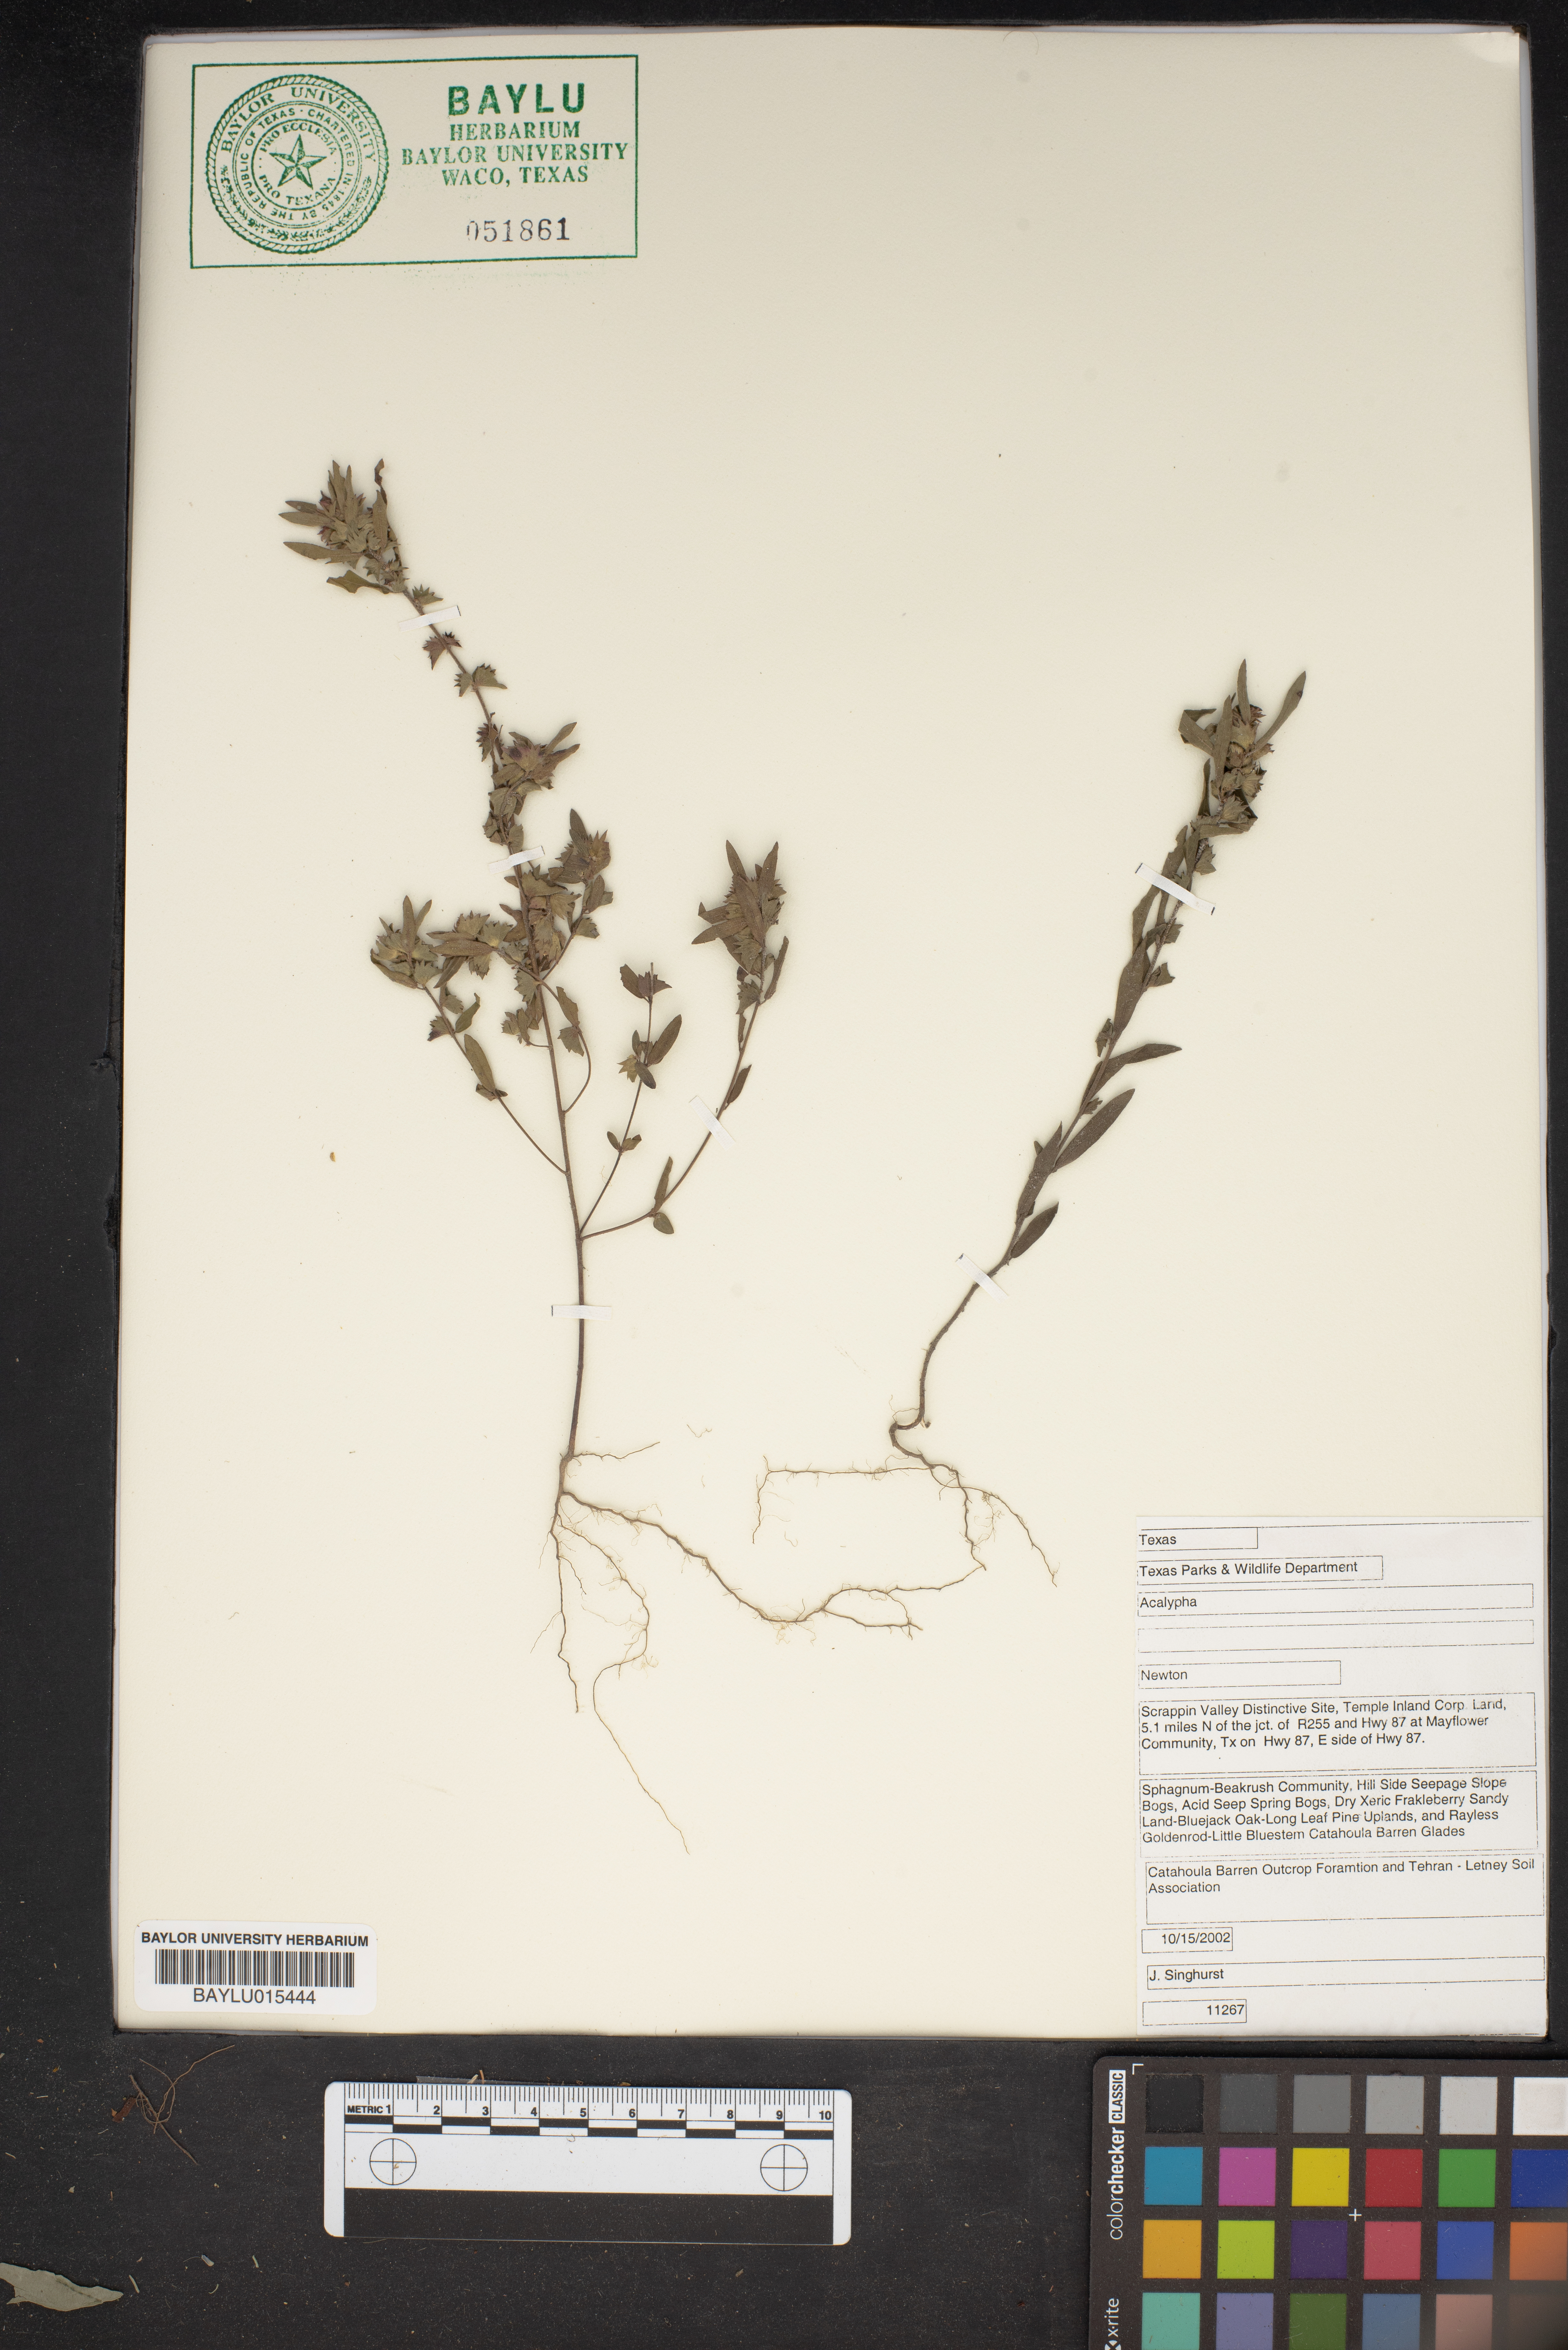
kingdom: Plantae
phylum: Tracheophyta
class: Magnoliopsida
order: Malpighiales
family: Euphorbiaceae
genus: Acalypha
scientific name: Acalypha
